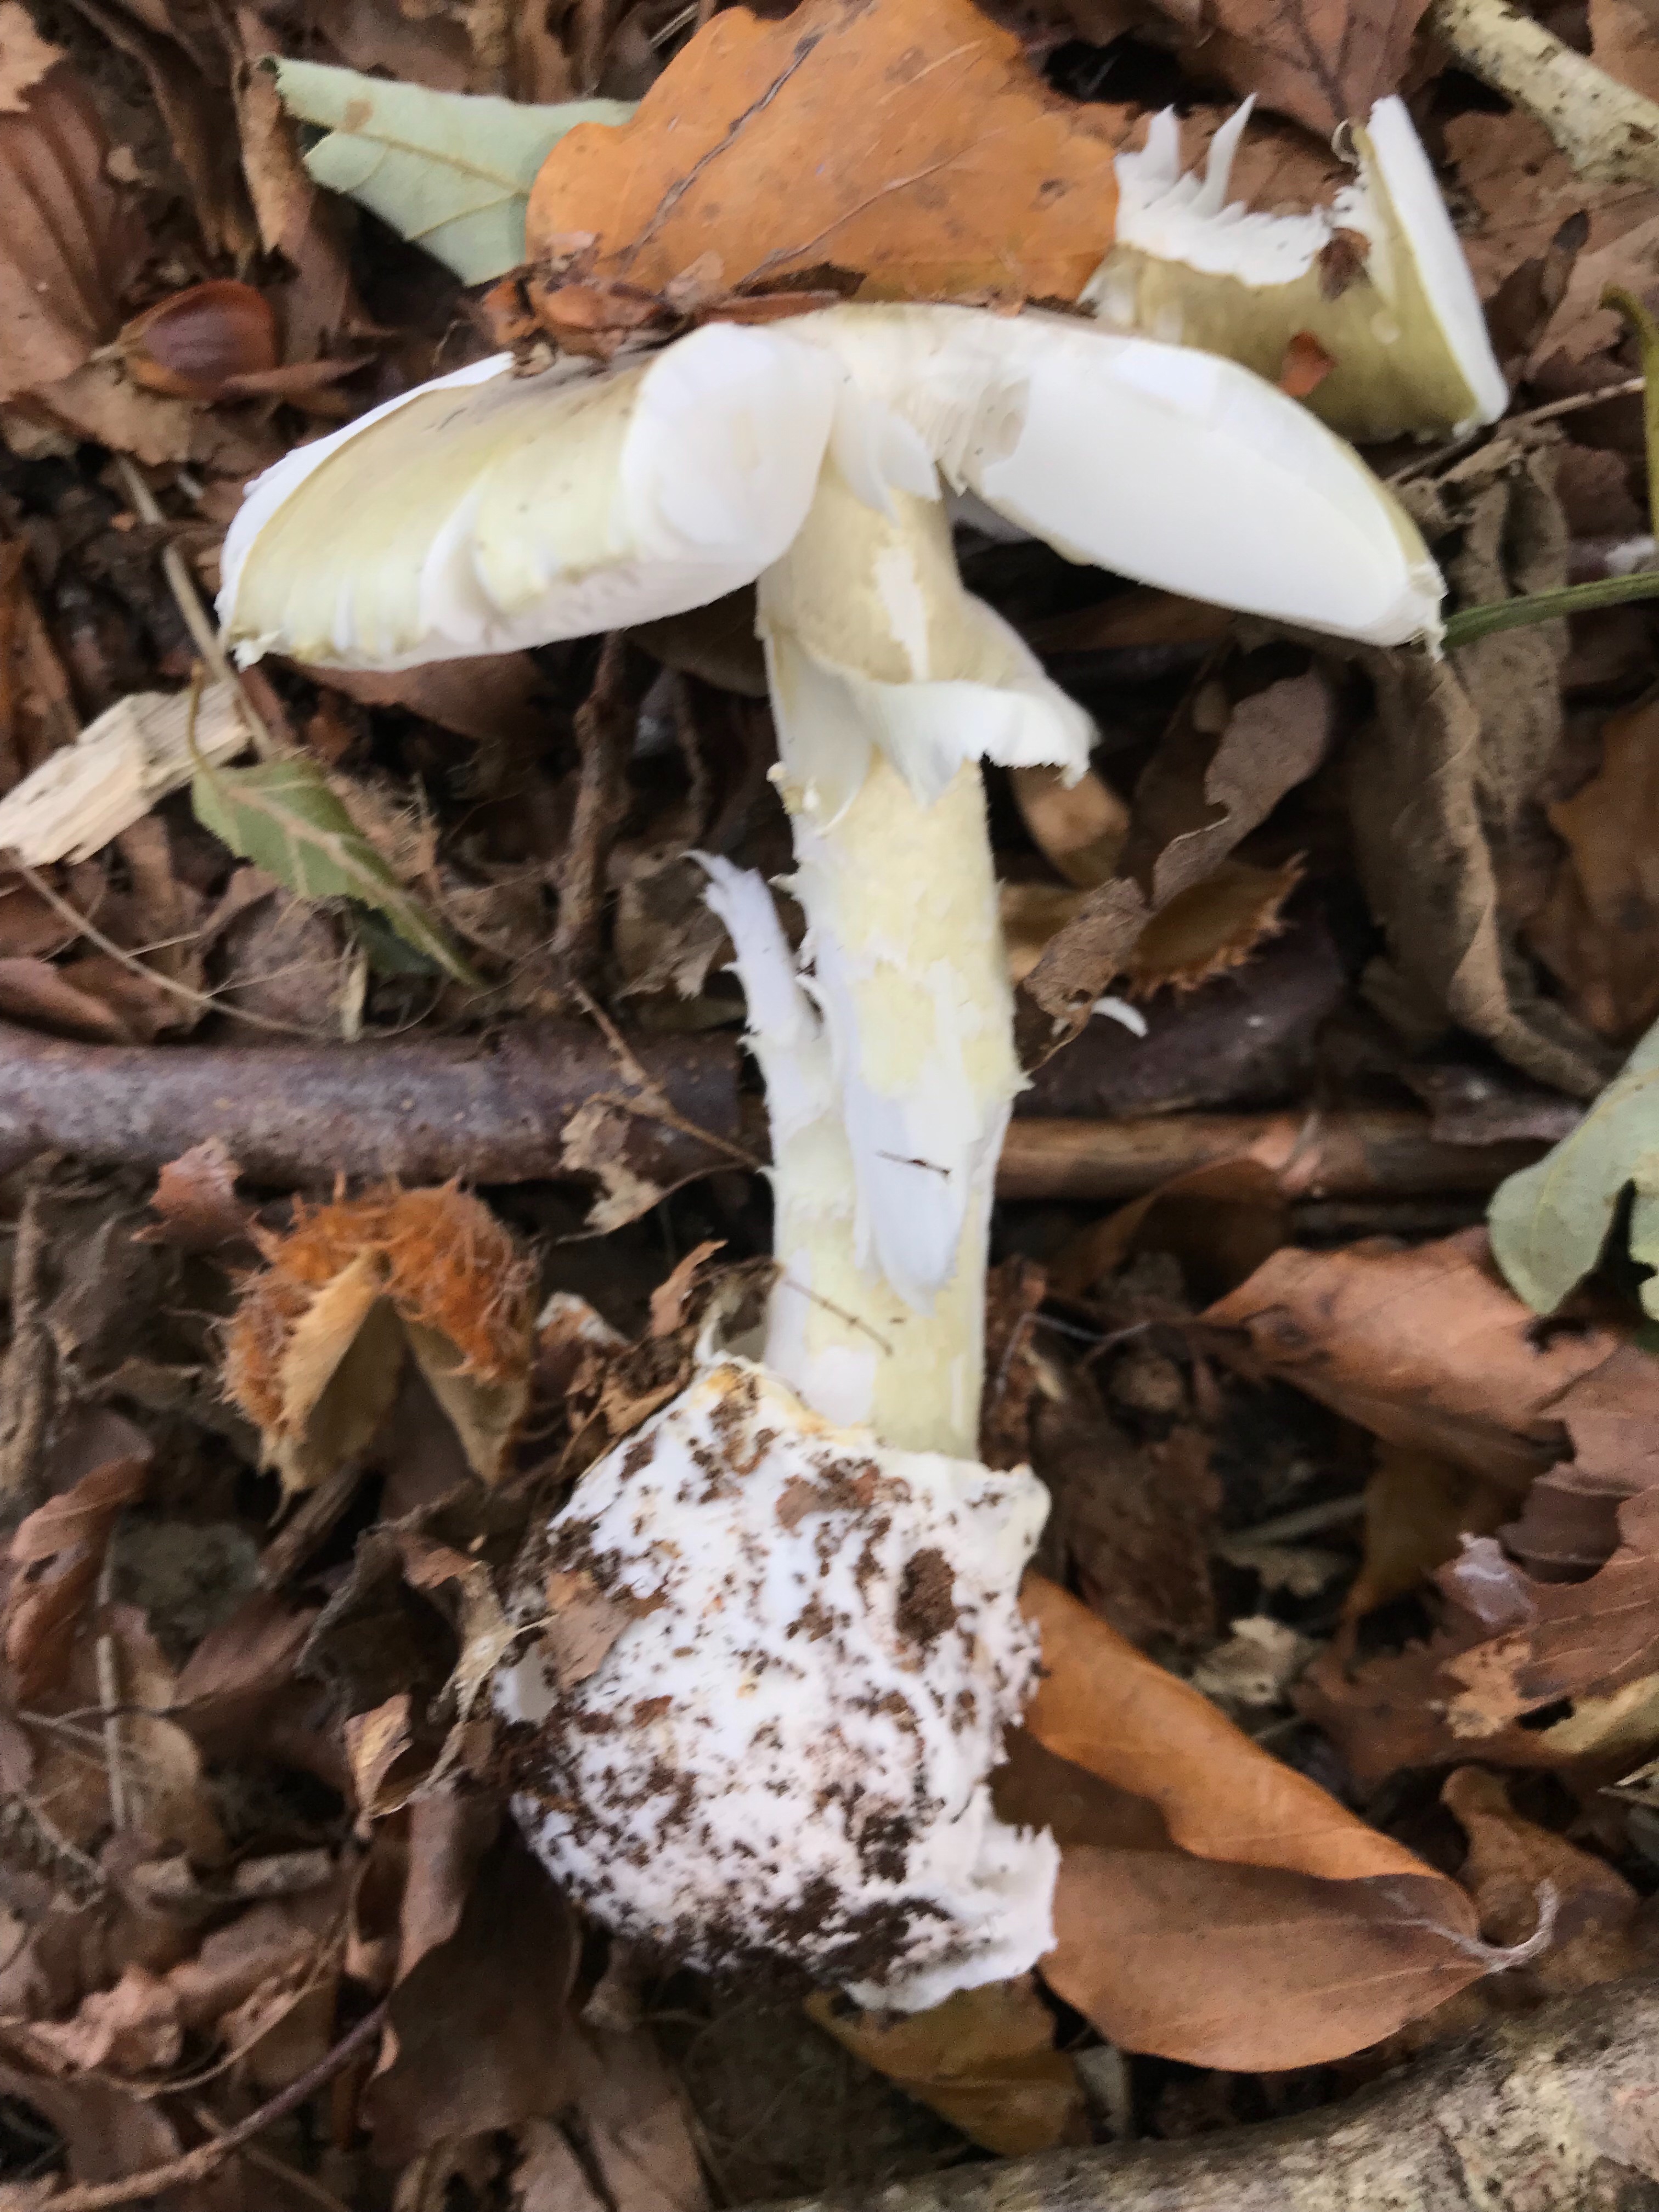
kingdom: Fungi
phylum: Basidiomycota
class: Agaricomycetes
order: Agaricales
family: Amanitaceae
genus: Amanita
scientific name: Amanita phalloides
